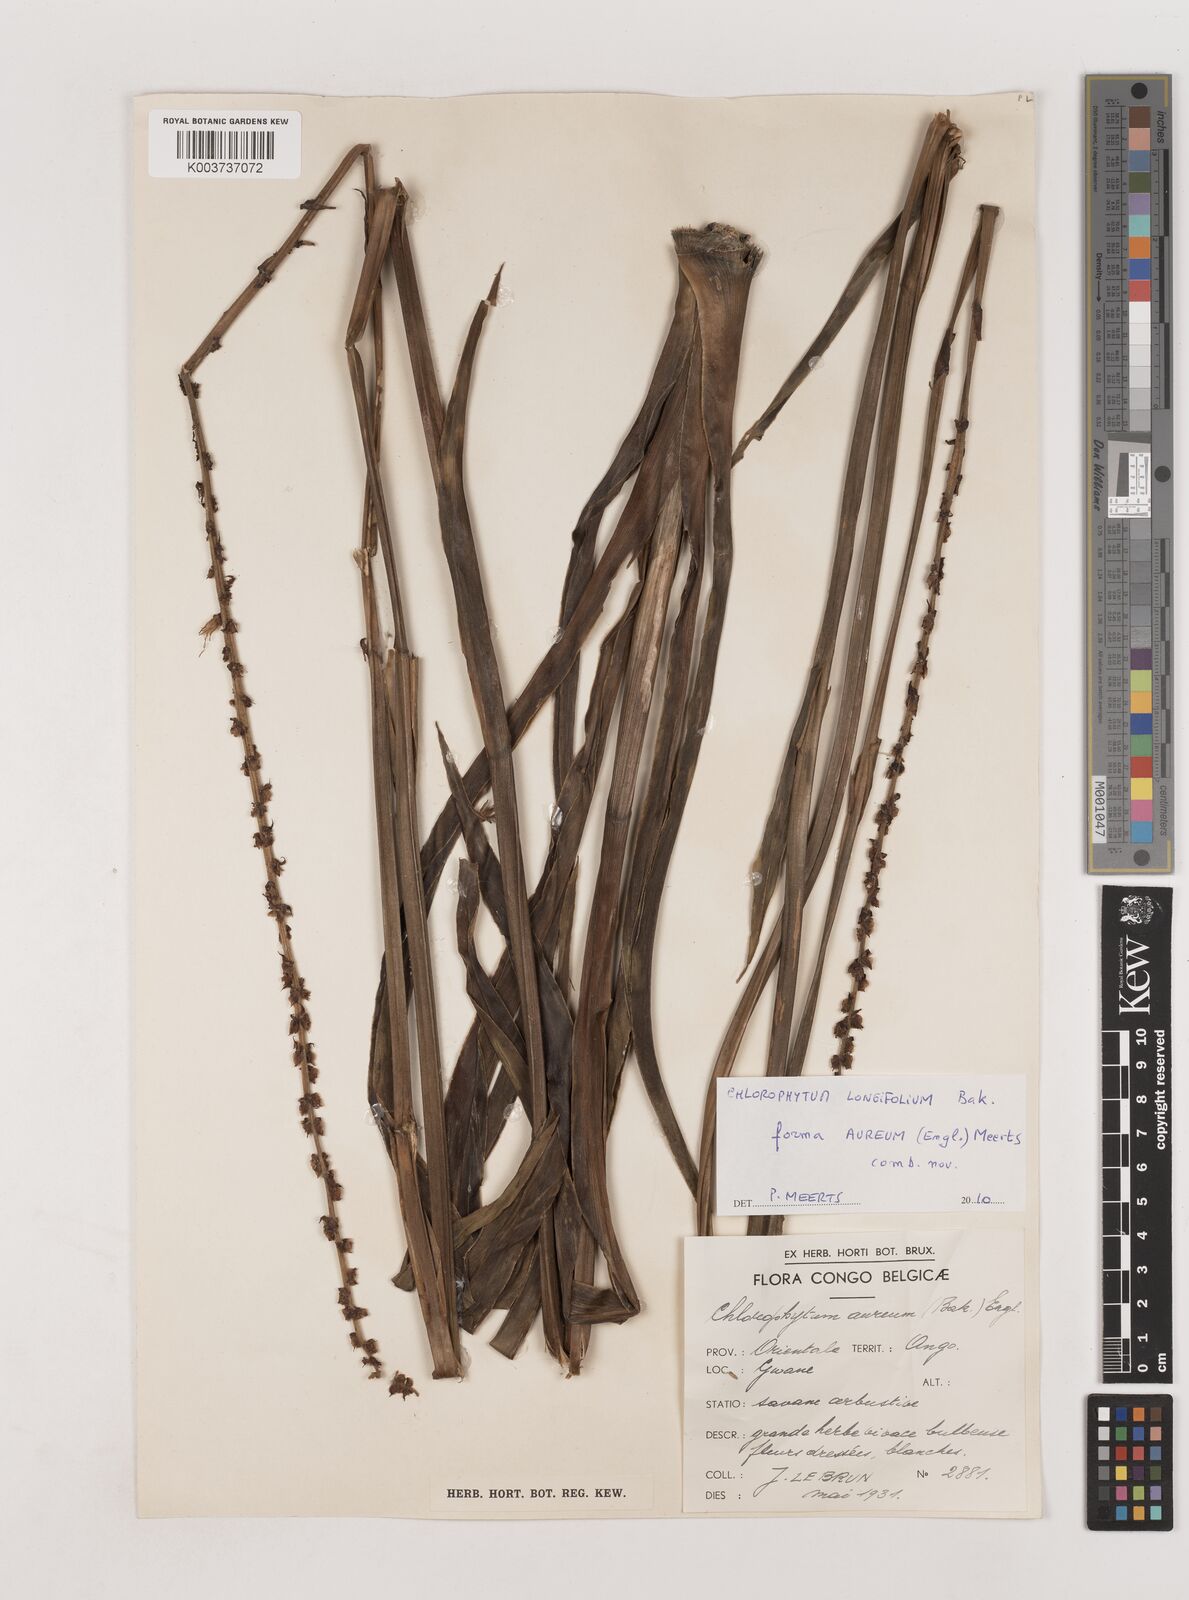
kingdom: Plantae
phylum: Tracheophyta
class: Liliopsida
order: Asparagales
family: Asparagaceae
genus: Chlorophytum
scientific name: Chlorophytum longifolium
